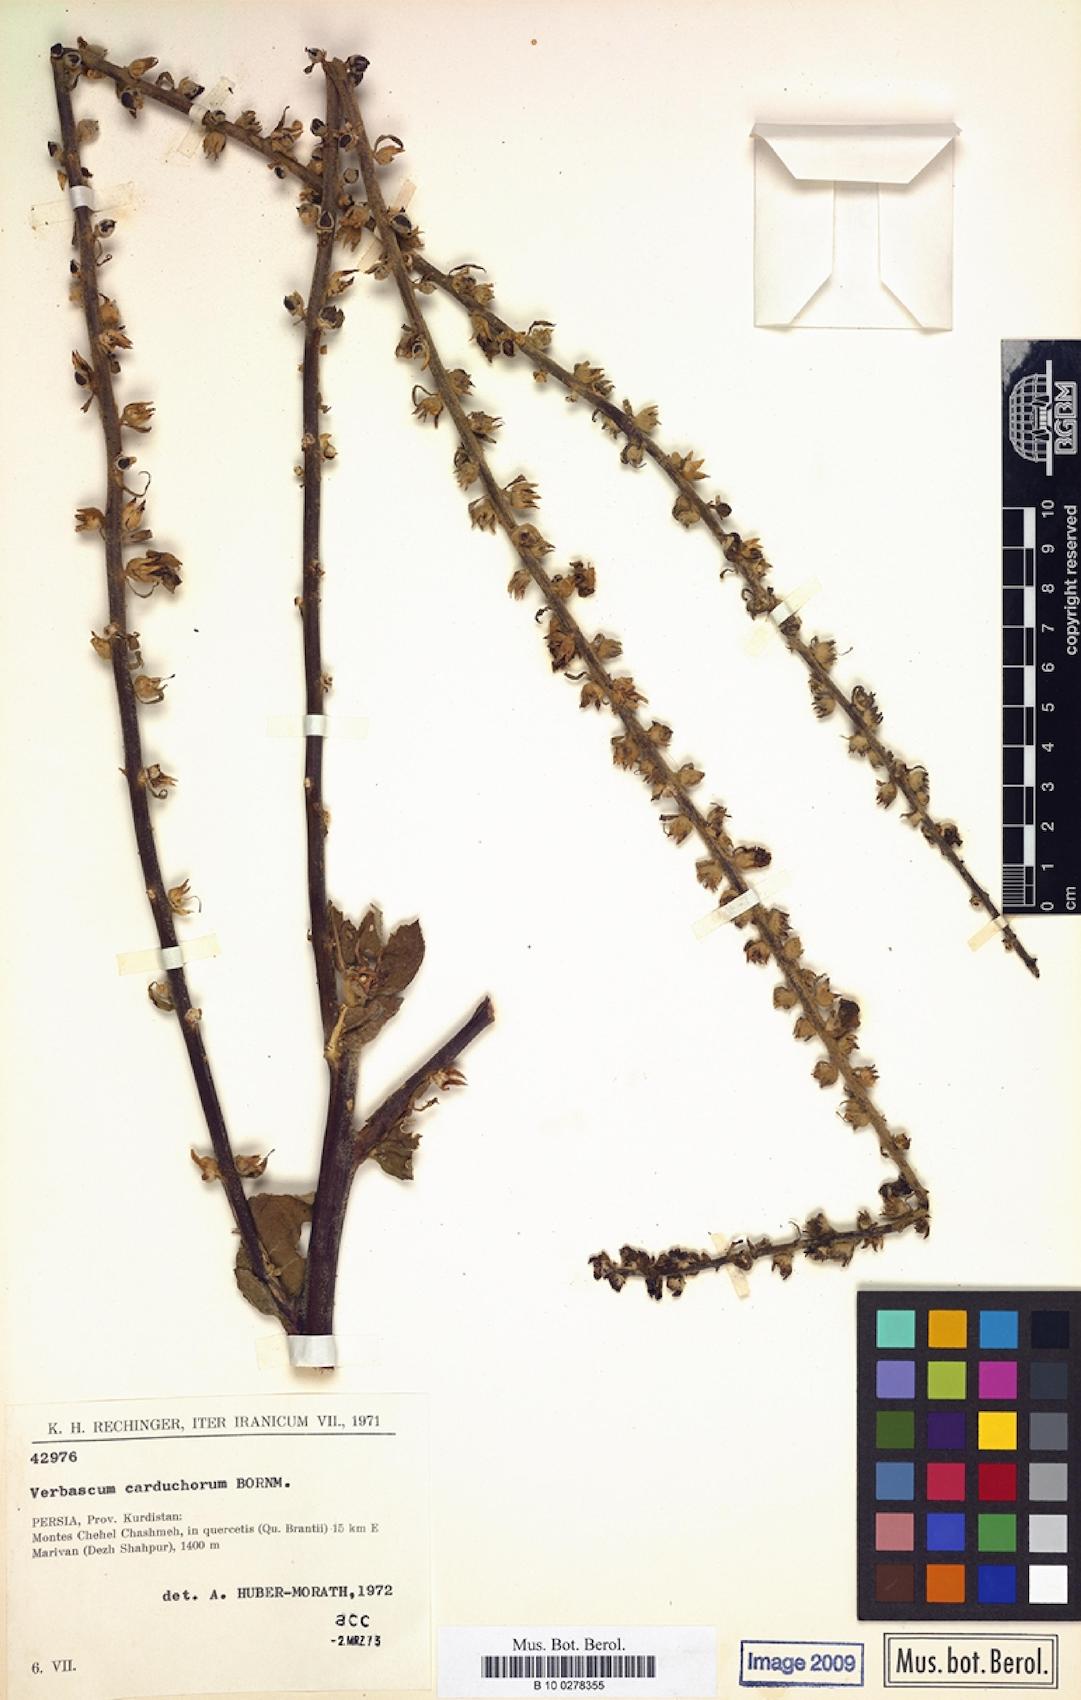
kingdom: Plantae
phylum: Tracheophyta
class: Magnoliopsida
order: Lamiales
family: Scrophulariaceae
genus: Verbascum
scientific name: Verbascum carduchorum
